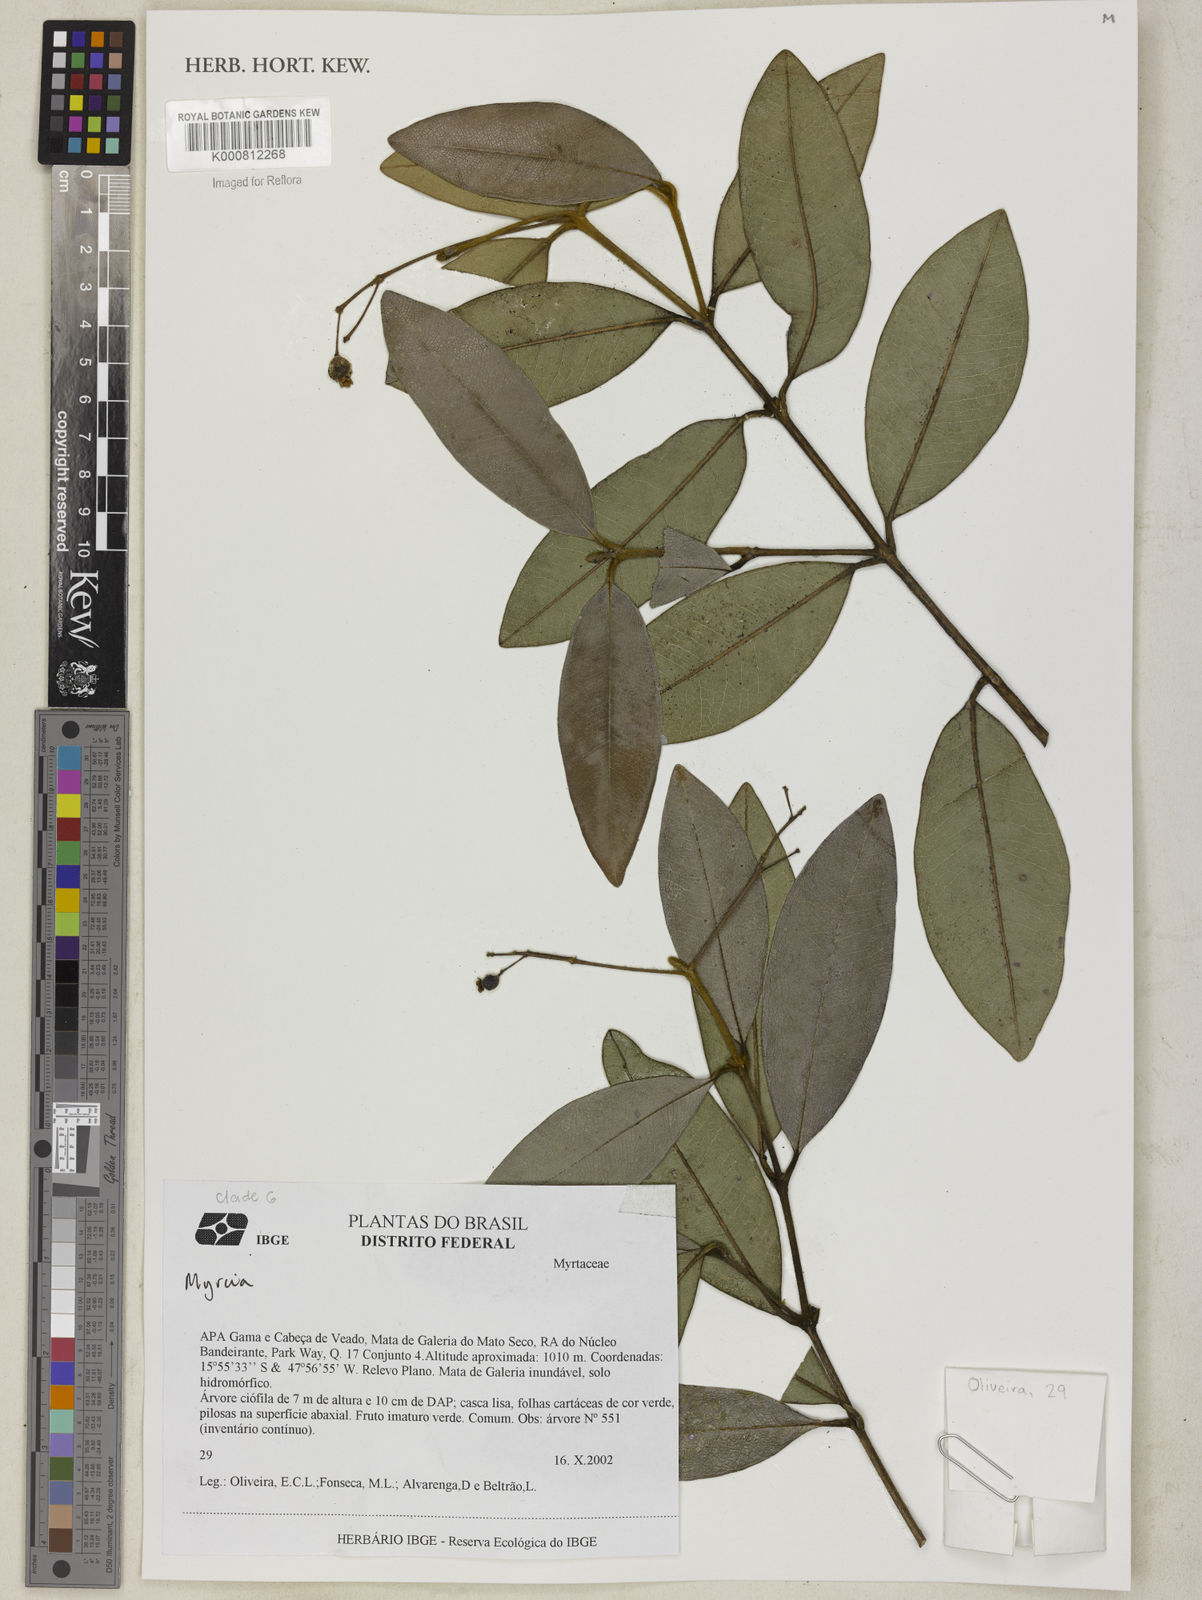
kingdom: Plantae
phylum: Tracheophyta
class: Magnoliopsida
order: Myrtales
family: Myrtaceae
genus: Myrcia
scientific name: Myrcia
